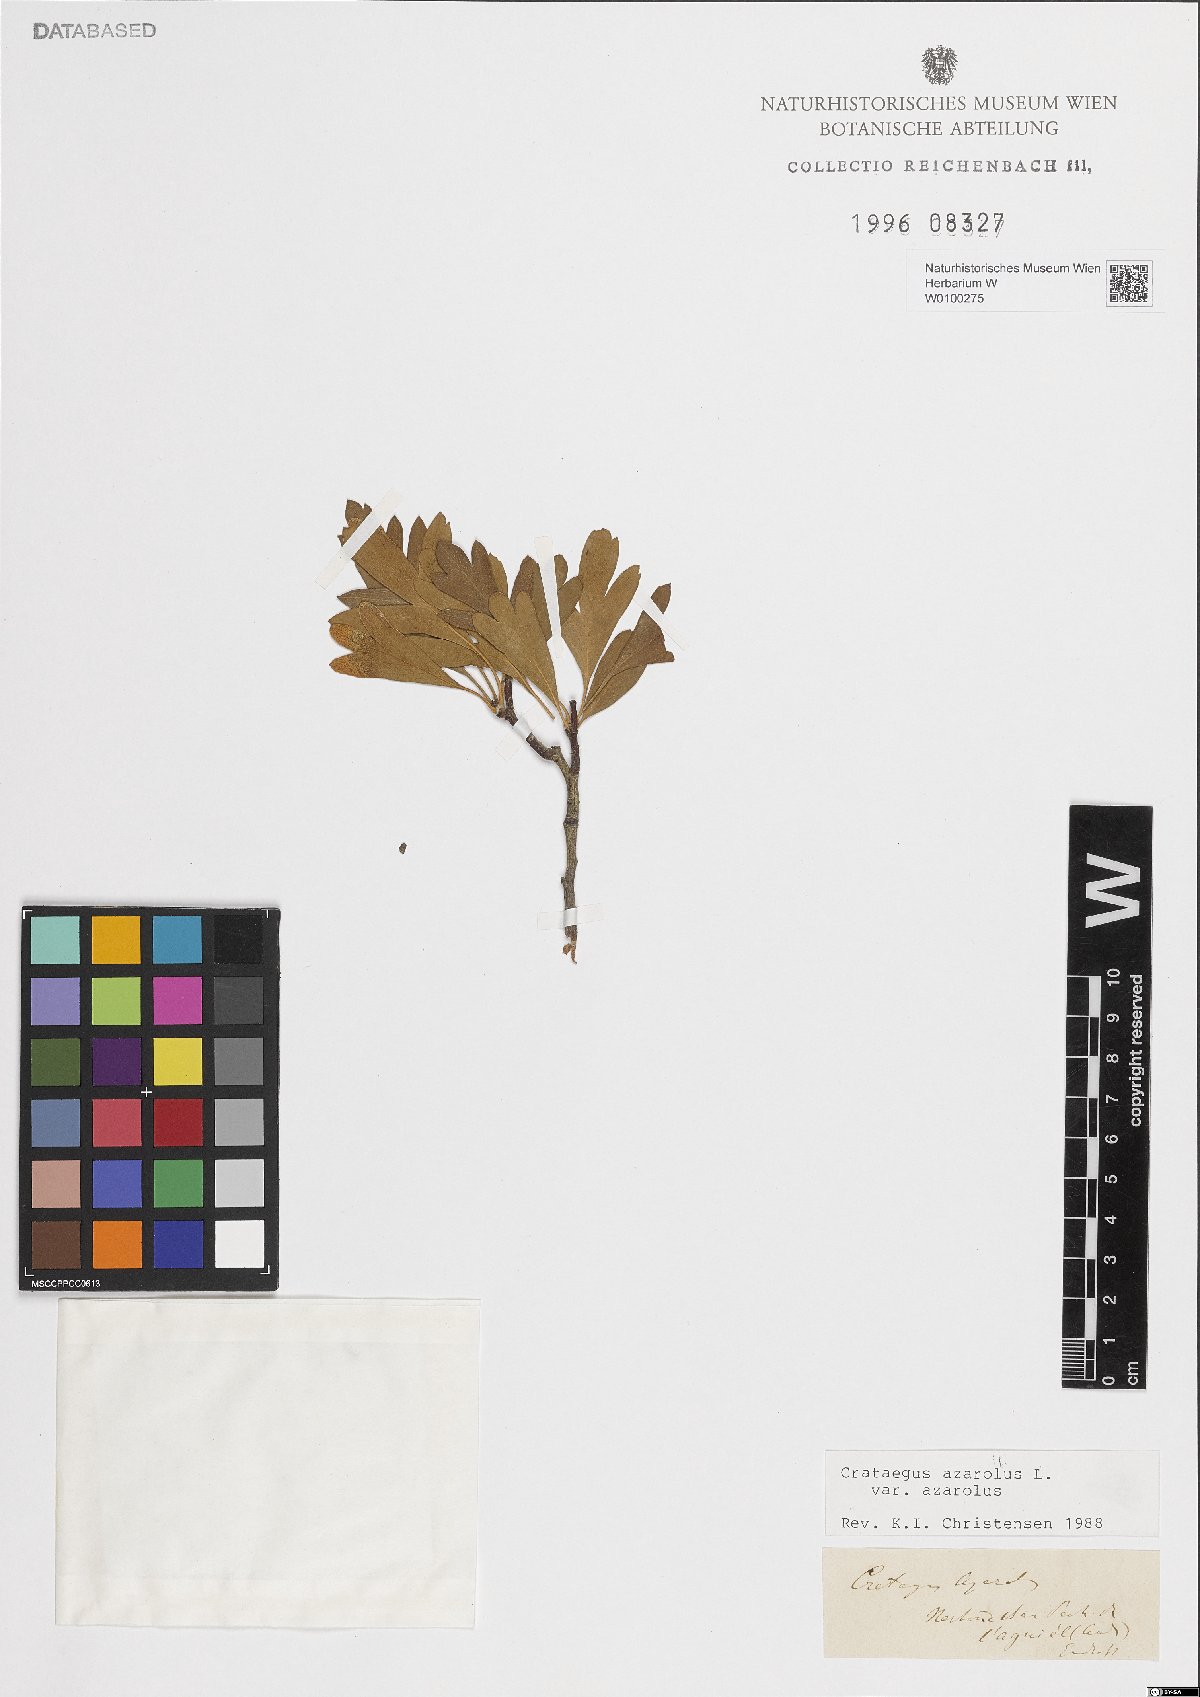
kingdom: Plantae
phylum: Tracheophyta
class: Magnoliopsida
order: Rosales
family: Rosaceae
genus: Crataegus
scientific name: Crataegus azarolus
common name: Azarole
